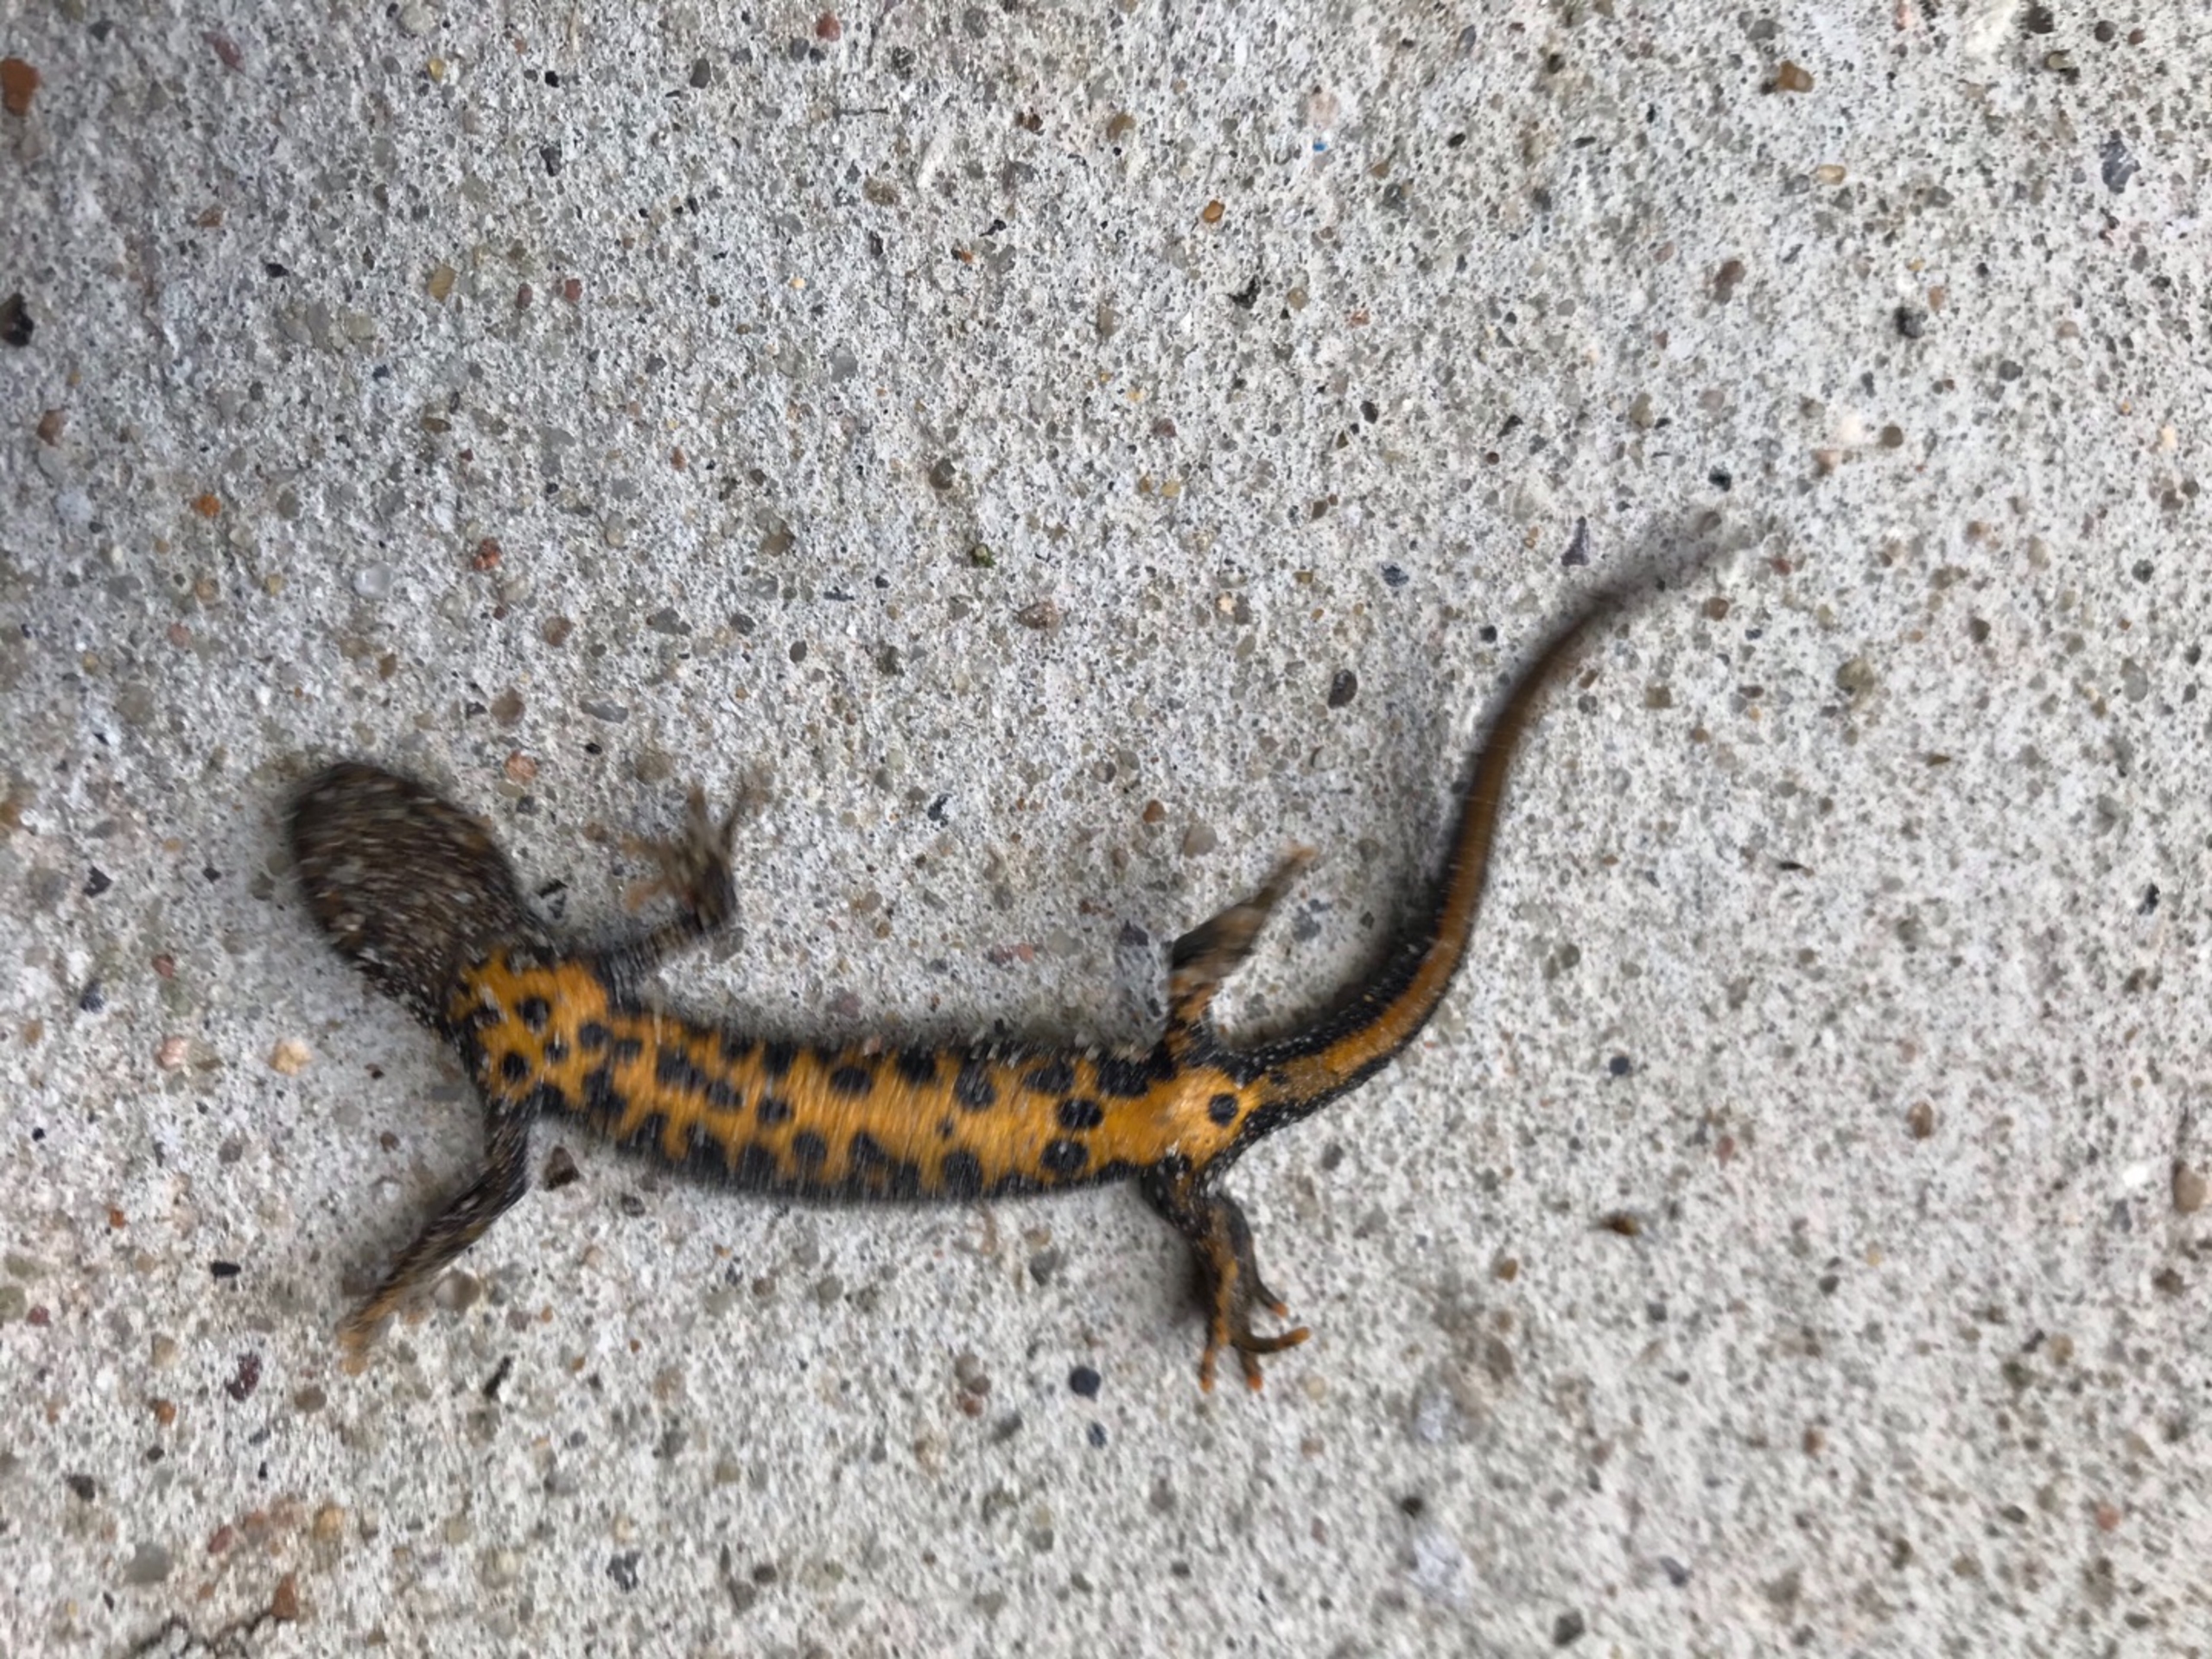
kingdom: Animalia
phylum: Chordata
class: Amphibia
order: Caudata
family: Salamandridae
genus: Triturus
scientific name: Triturus cristatus
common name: Stor vandsalamander
